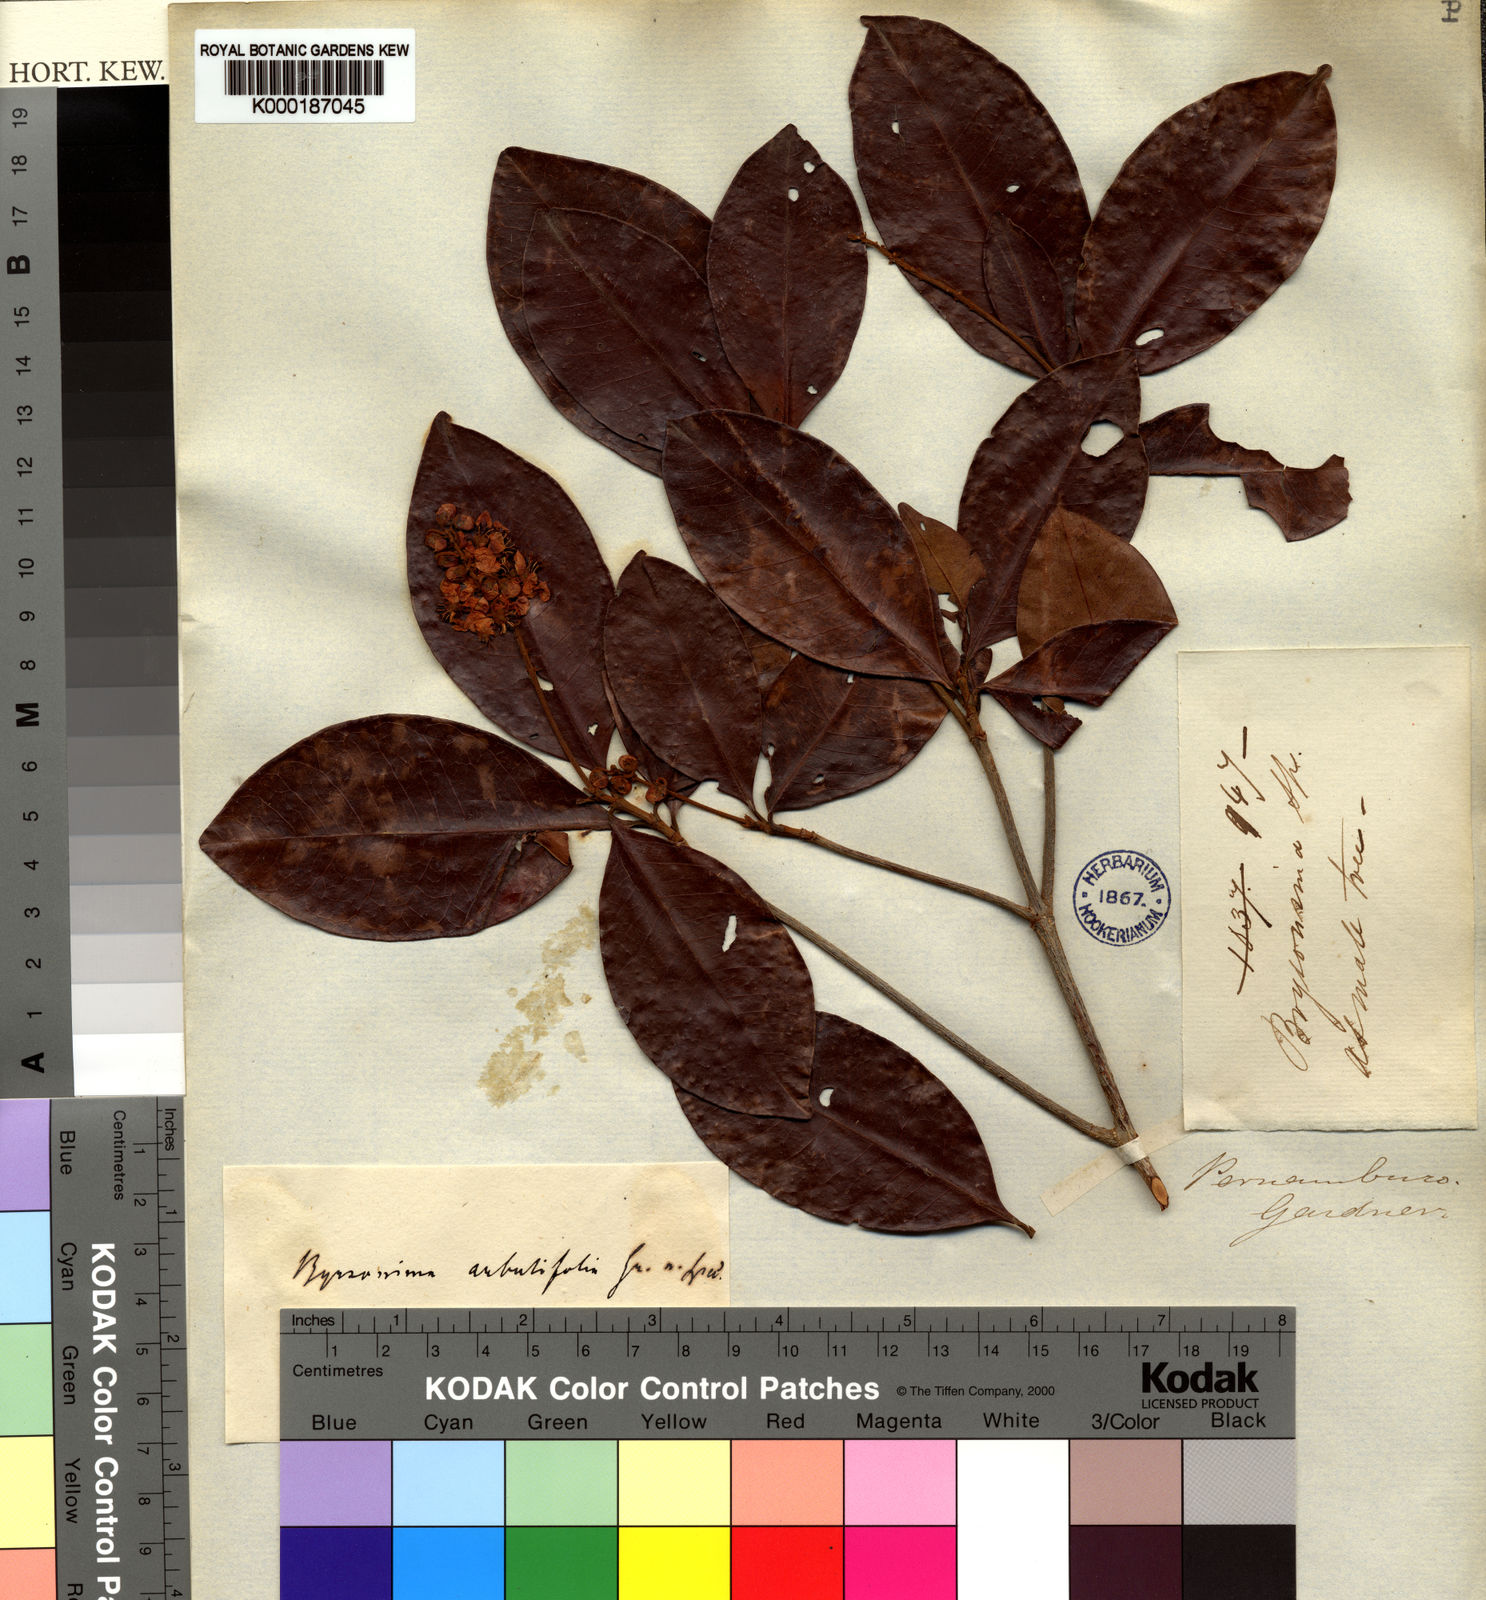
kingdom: Plantae
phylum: Tracheophyta
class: Magnoliopsida
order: Malpighiales
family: Malpighiaceae
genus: Byrsonima
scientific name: Byrsonima bumeliifolia
